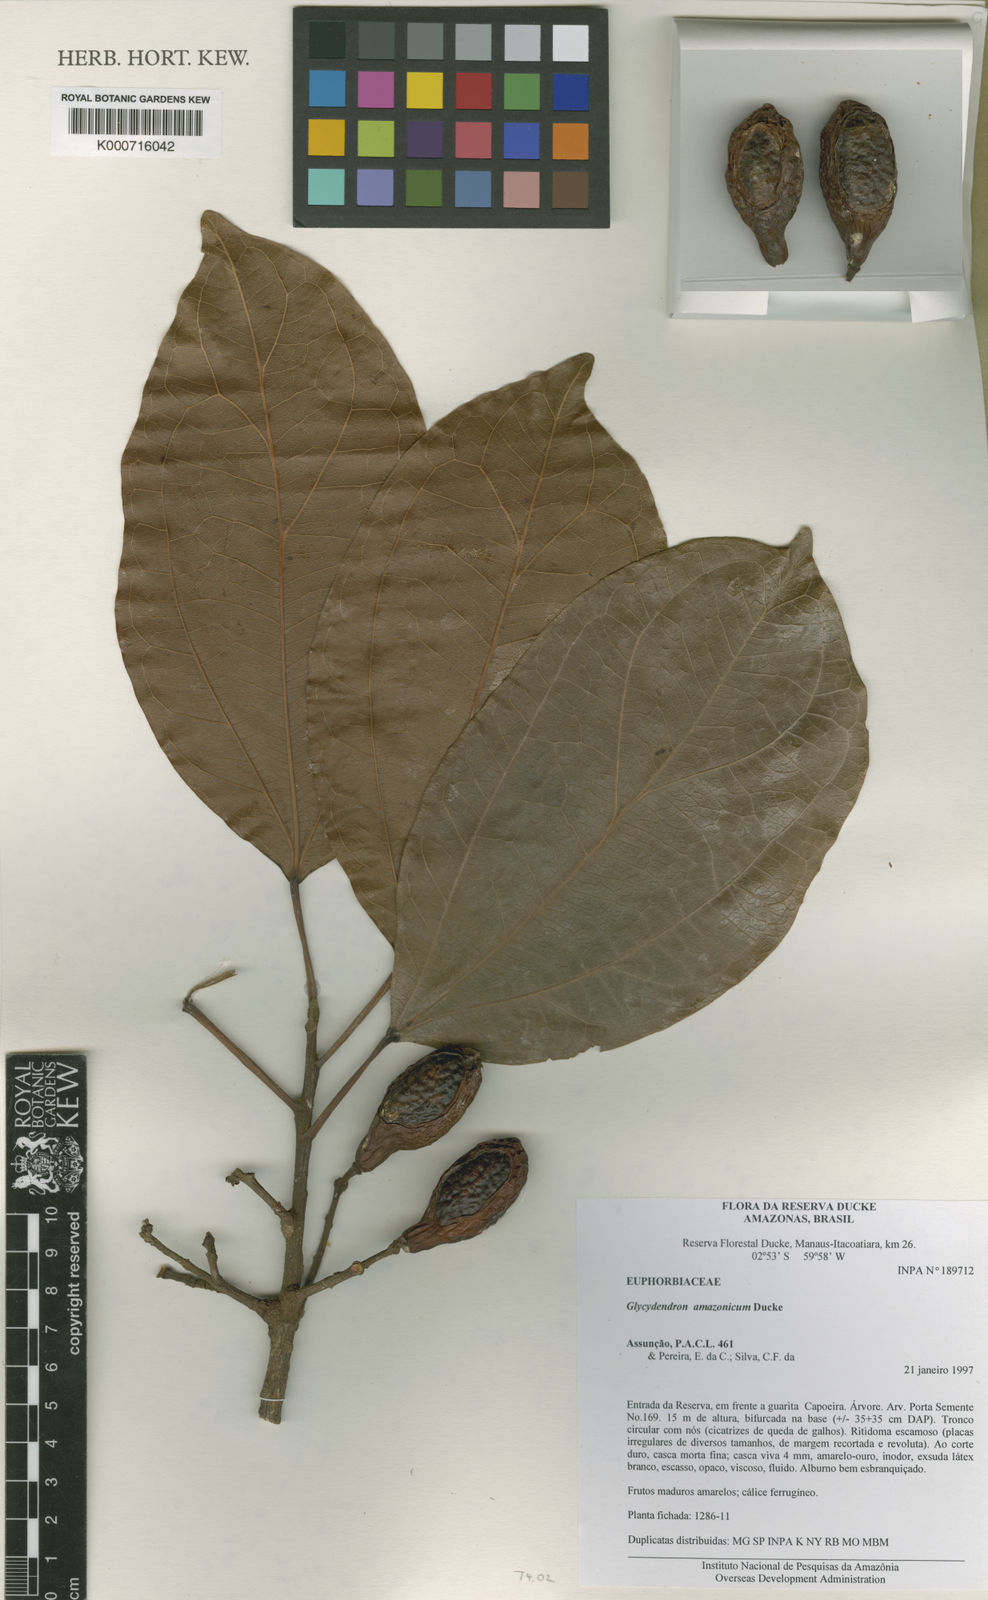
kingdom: Plantae
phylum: Tracheophyta
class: Magnoliopsida
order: Malpighiales
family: Euphorbiaceae
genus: Glycydendron
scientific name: Glycydendron amazonicum
